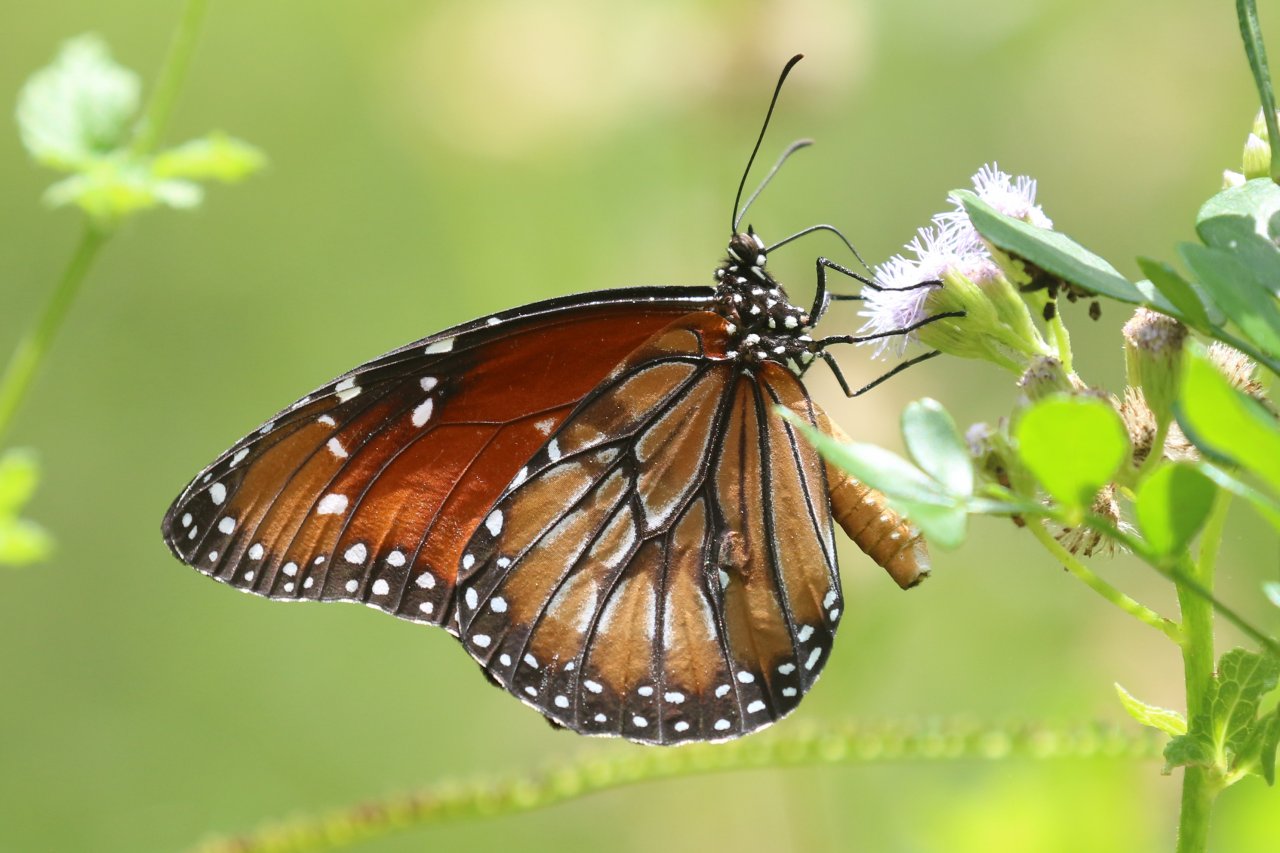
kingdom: Animalia
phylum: Arthropoda
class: Insecta
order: Lepidoptera
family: Nymphalidae
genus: Danaus
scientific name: Danaus eresimus
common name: Soldier
